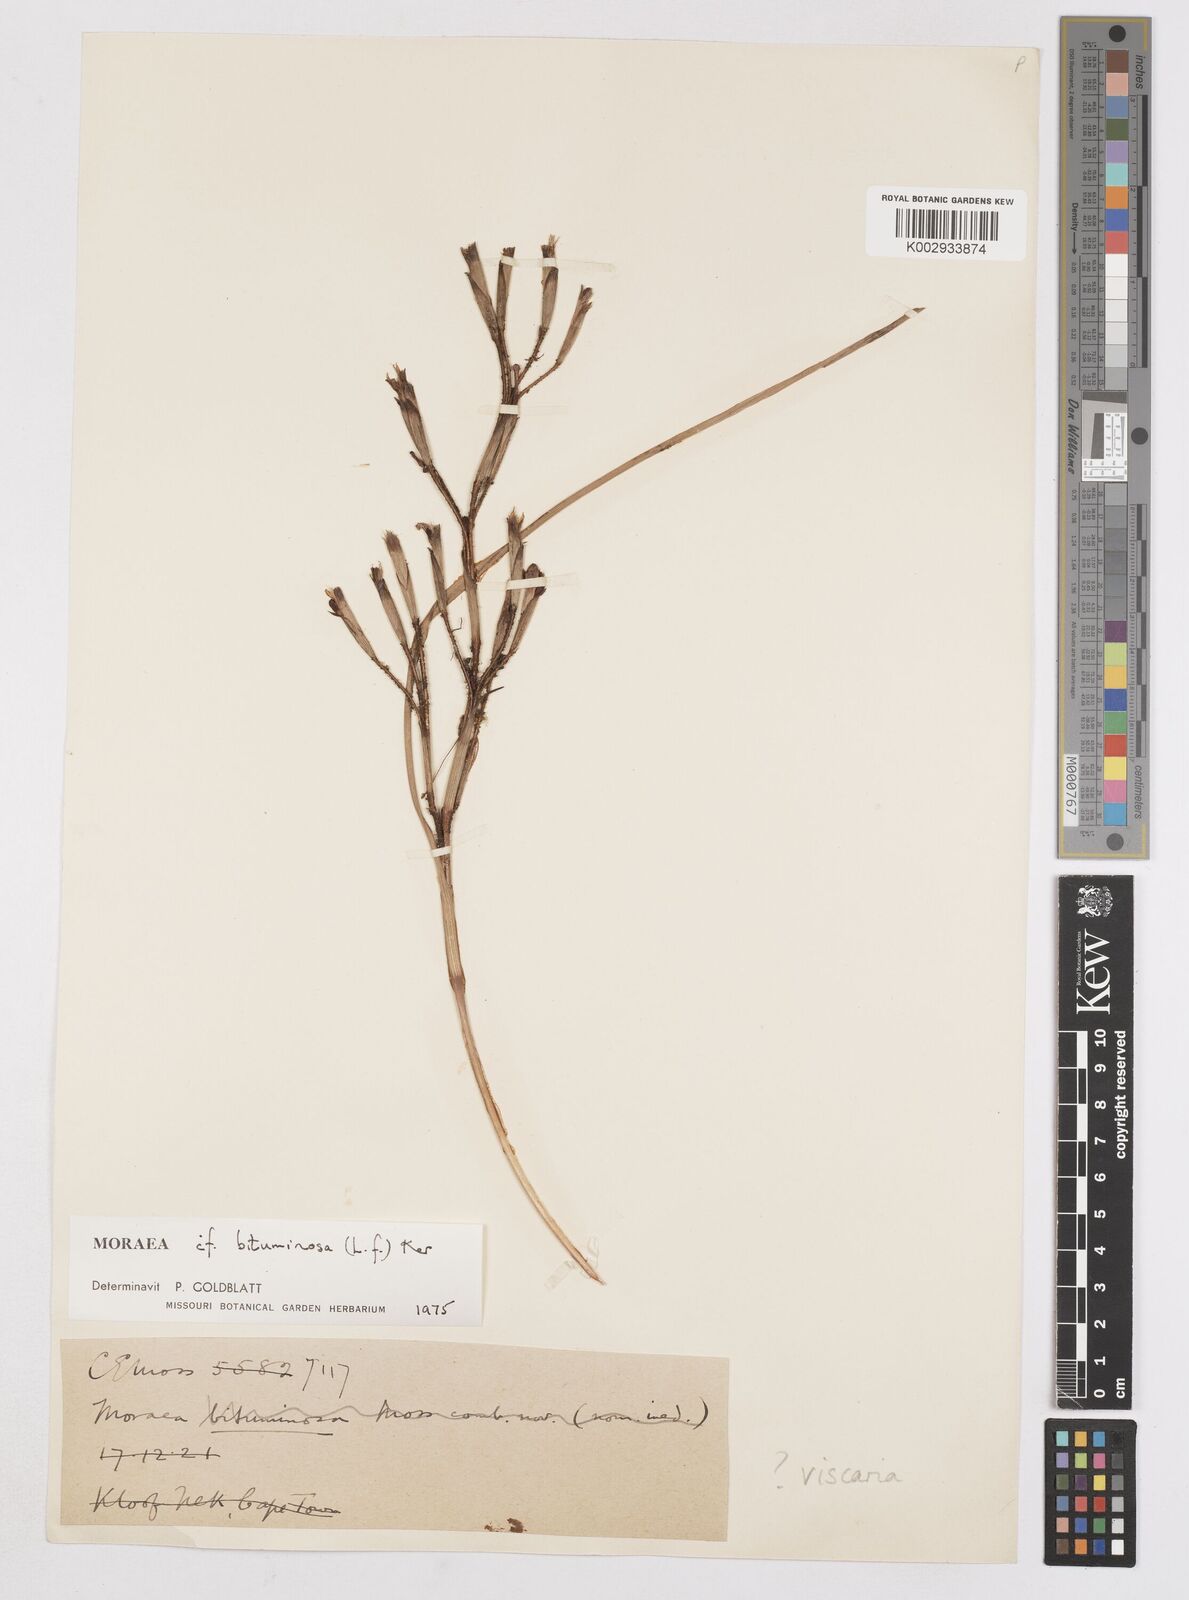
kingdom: Plantae
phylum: Tracheophyta
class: Liliopsida
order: Asparagales
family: Iridaceae
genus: Moraea
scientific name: Moraea bituminosa
